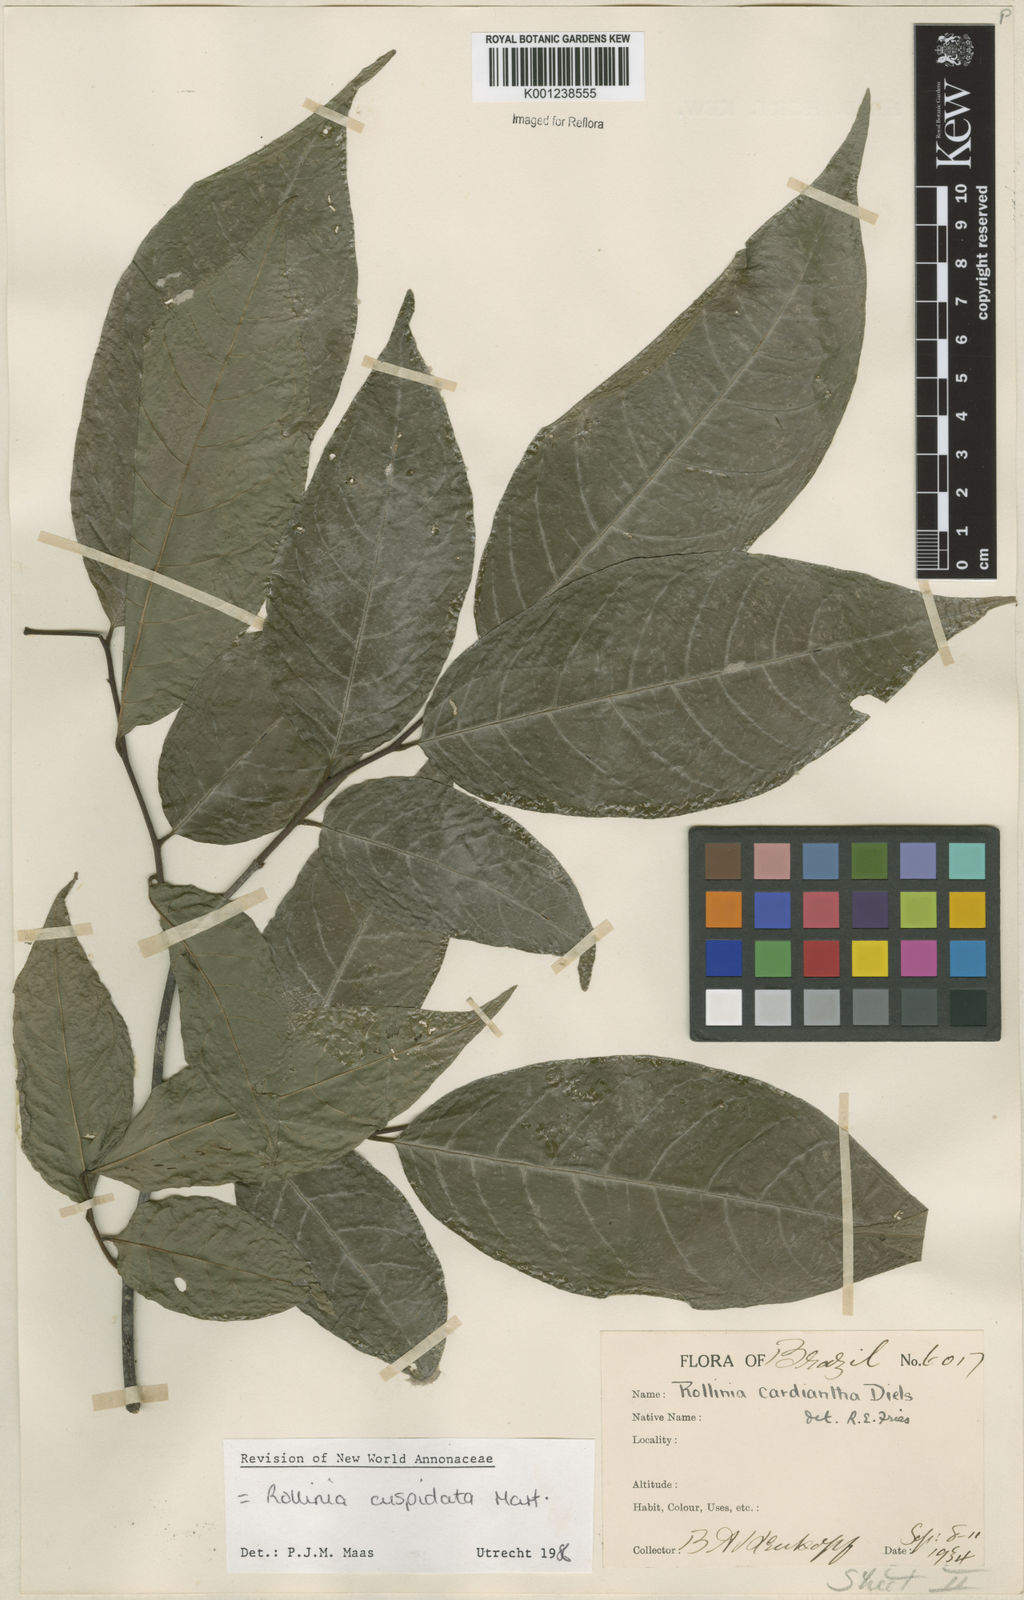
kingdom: Plantae
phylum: Tracheophyta
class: Magnoliopsida
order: Magnoliales
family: Annonaceae
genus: Annona
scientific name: Annona cuspidata
